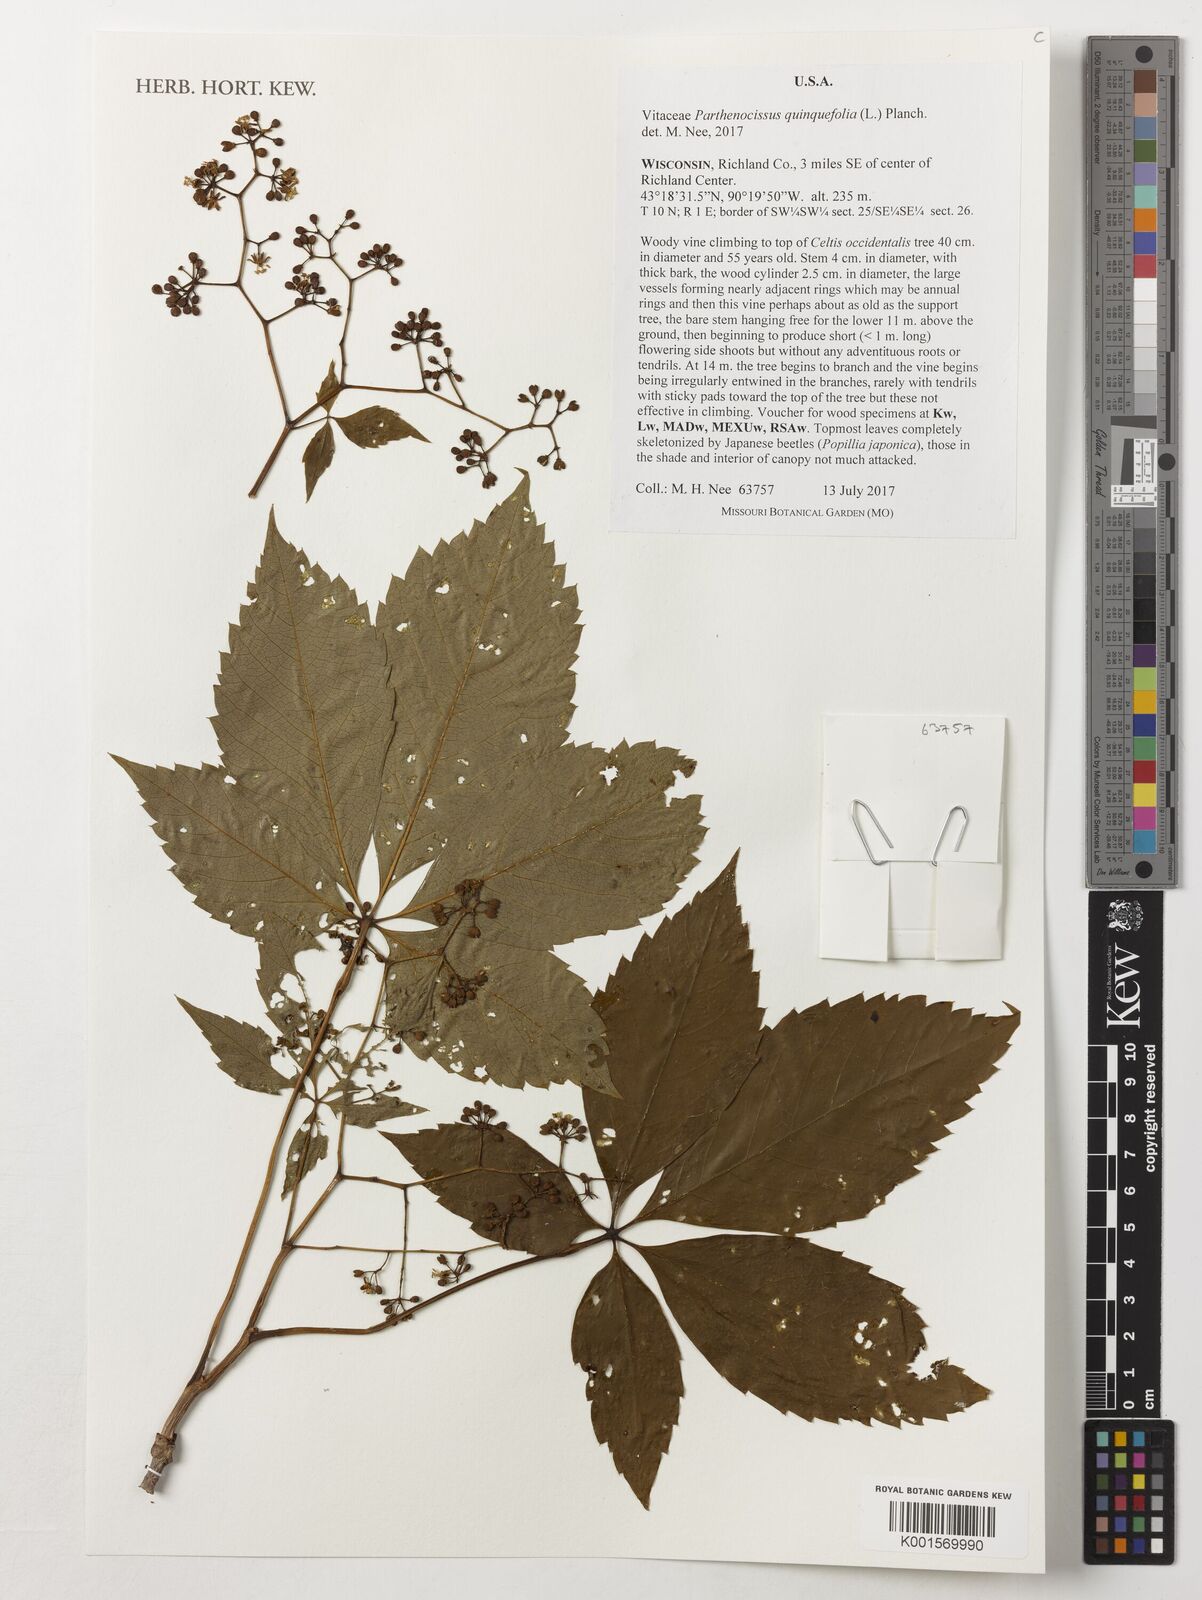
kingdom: Plantae
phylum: Tracheophyta
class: Magnoliopsida
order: Vitales
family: Vitaceae
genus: Parthenocissus
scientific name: Parthenocissus quinquefolia
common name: Virginia-creeper
